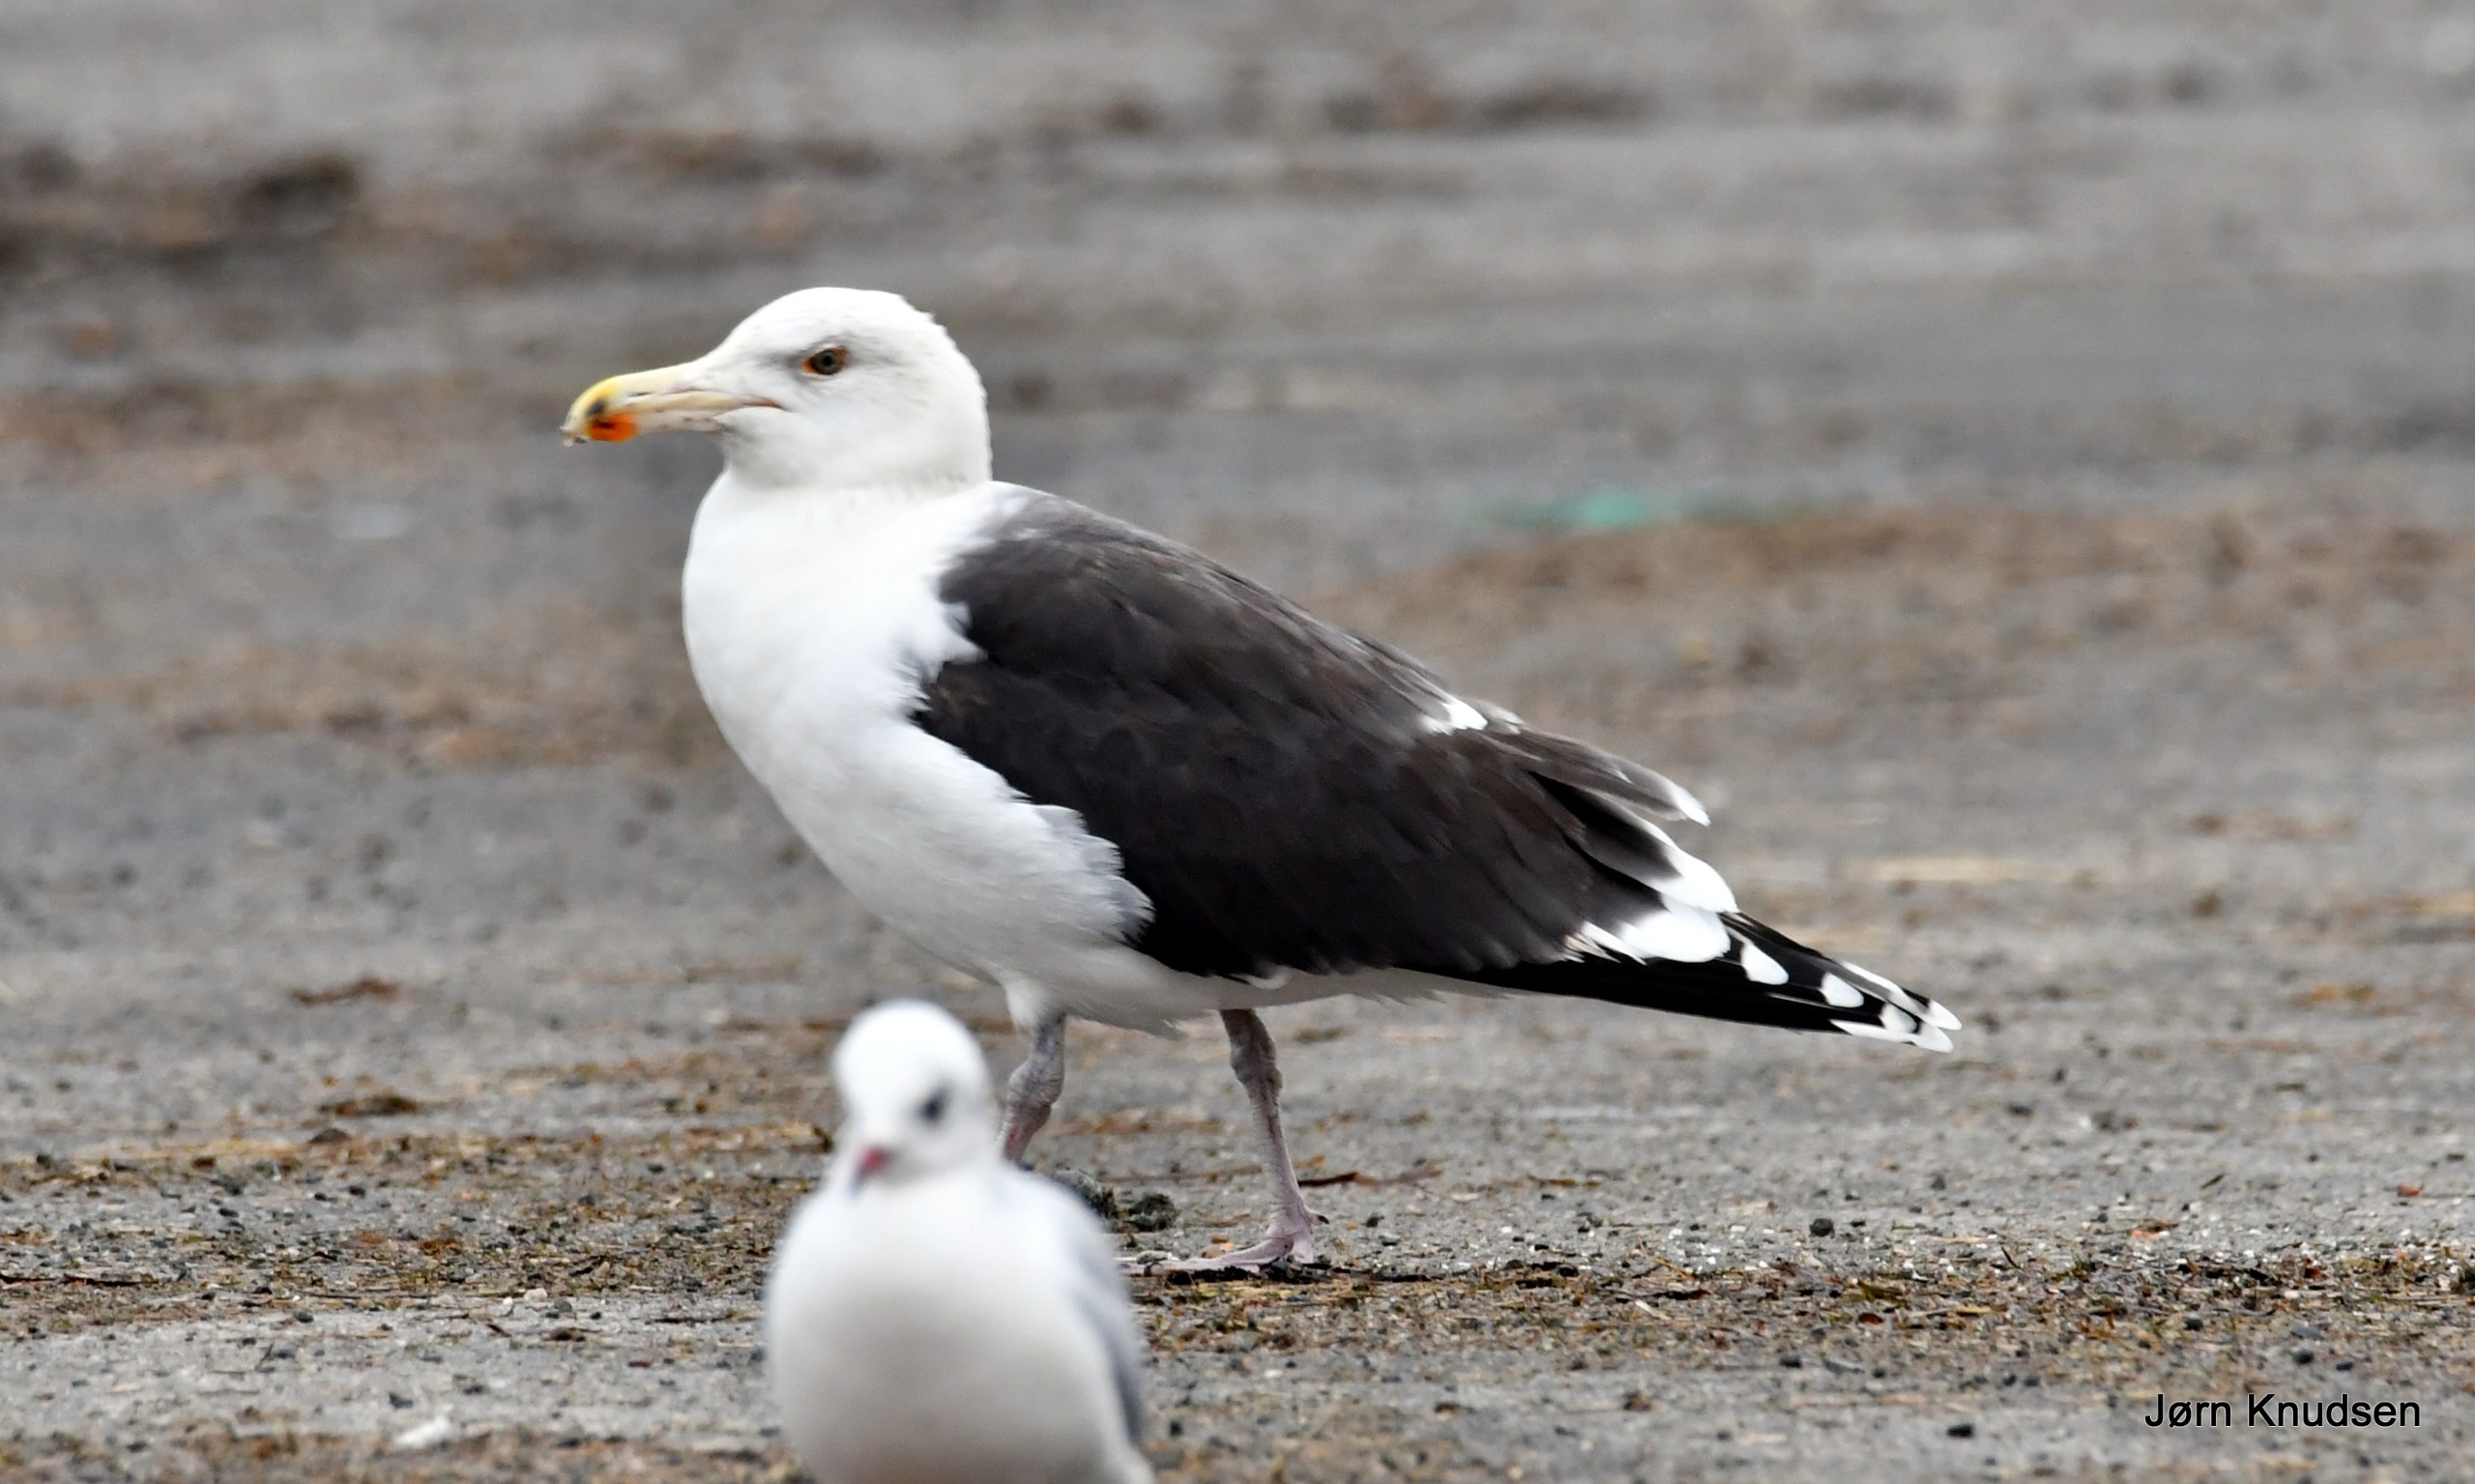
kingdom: Animalia
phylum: Chordata
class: Aves
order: Charadriiformes
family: Laridae
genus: Larus
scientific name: Larus marinus
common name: Svartbag
